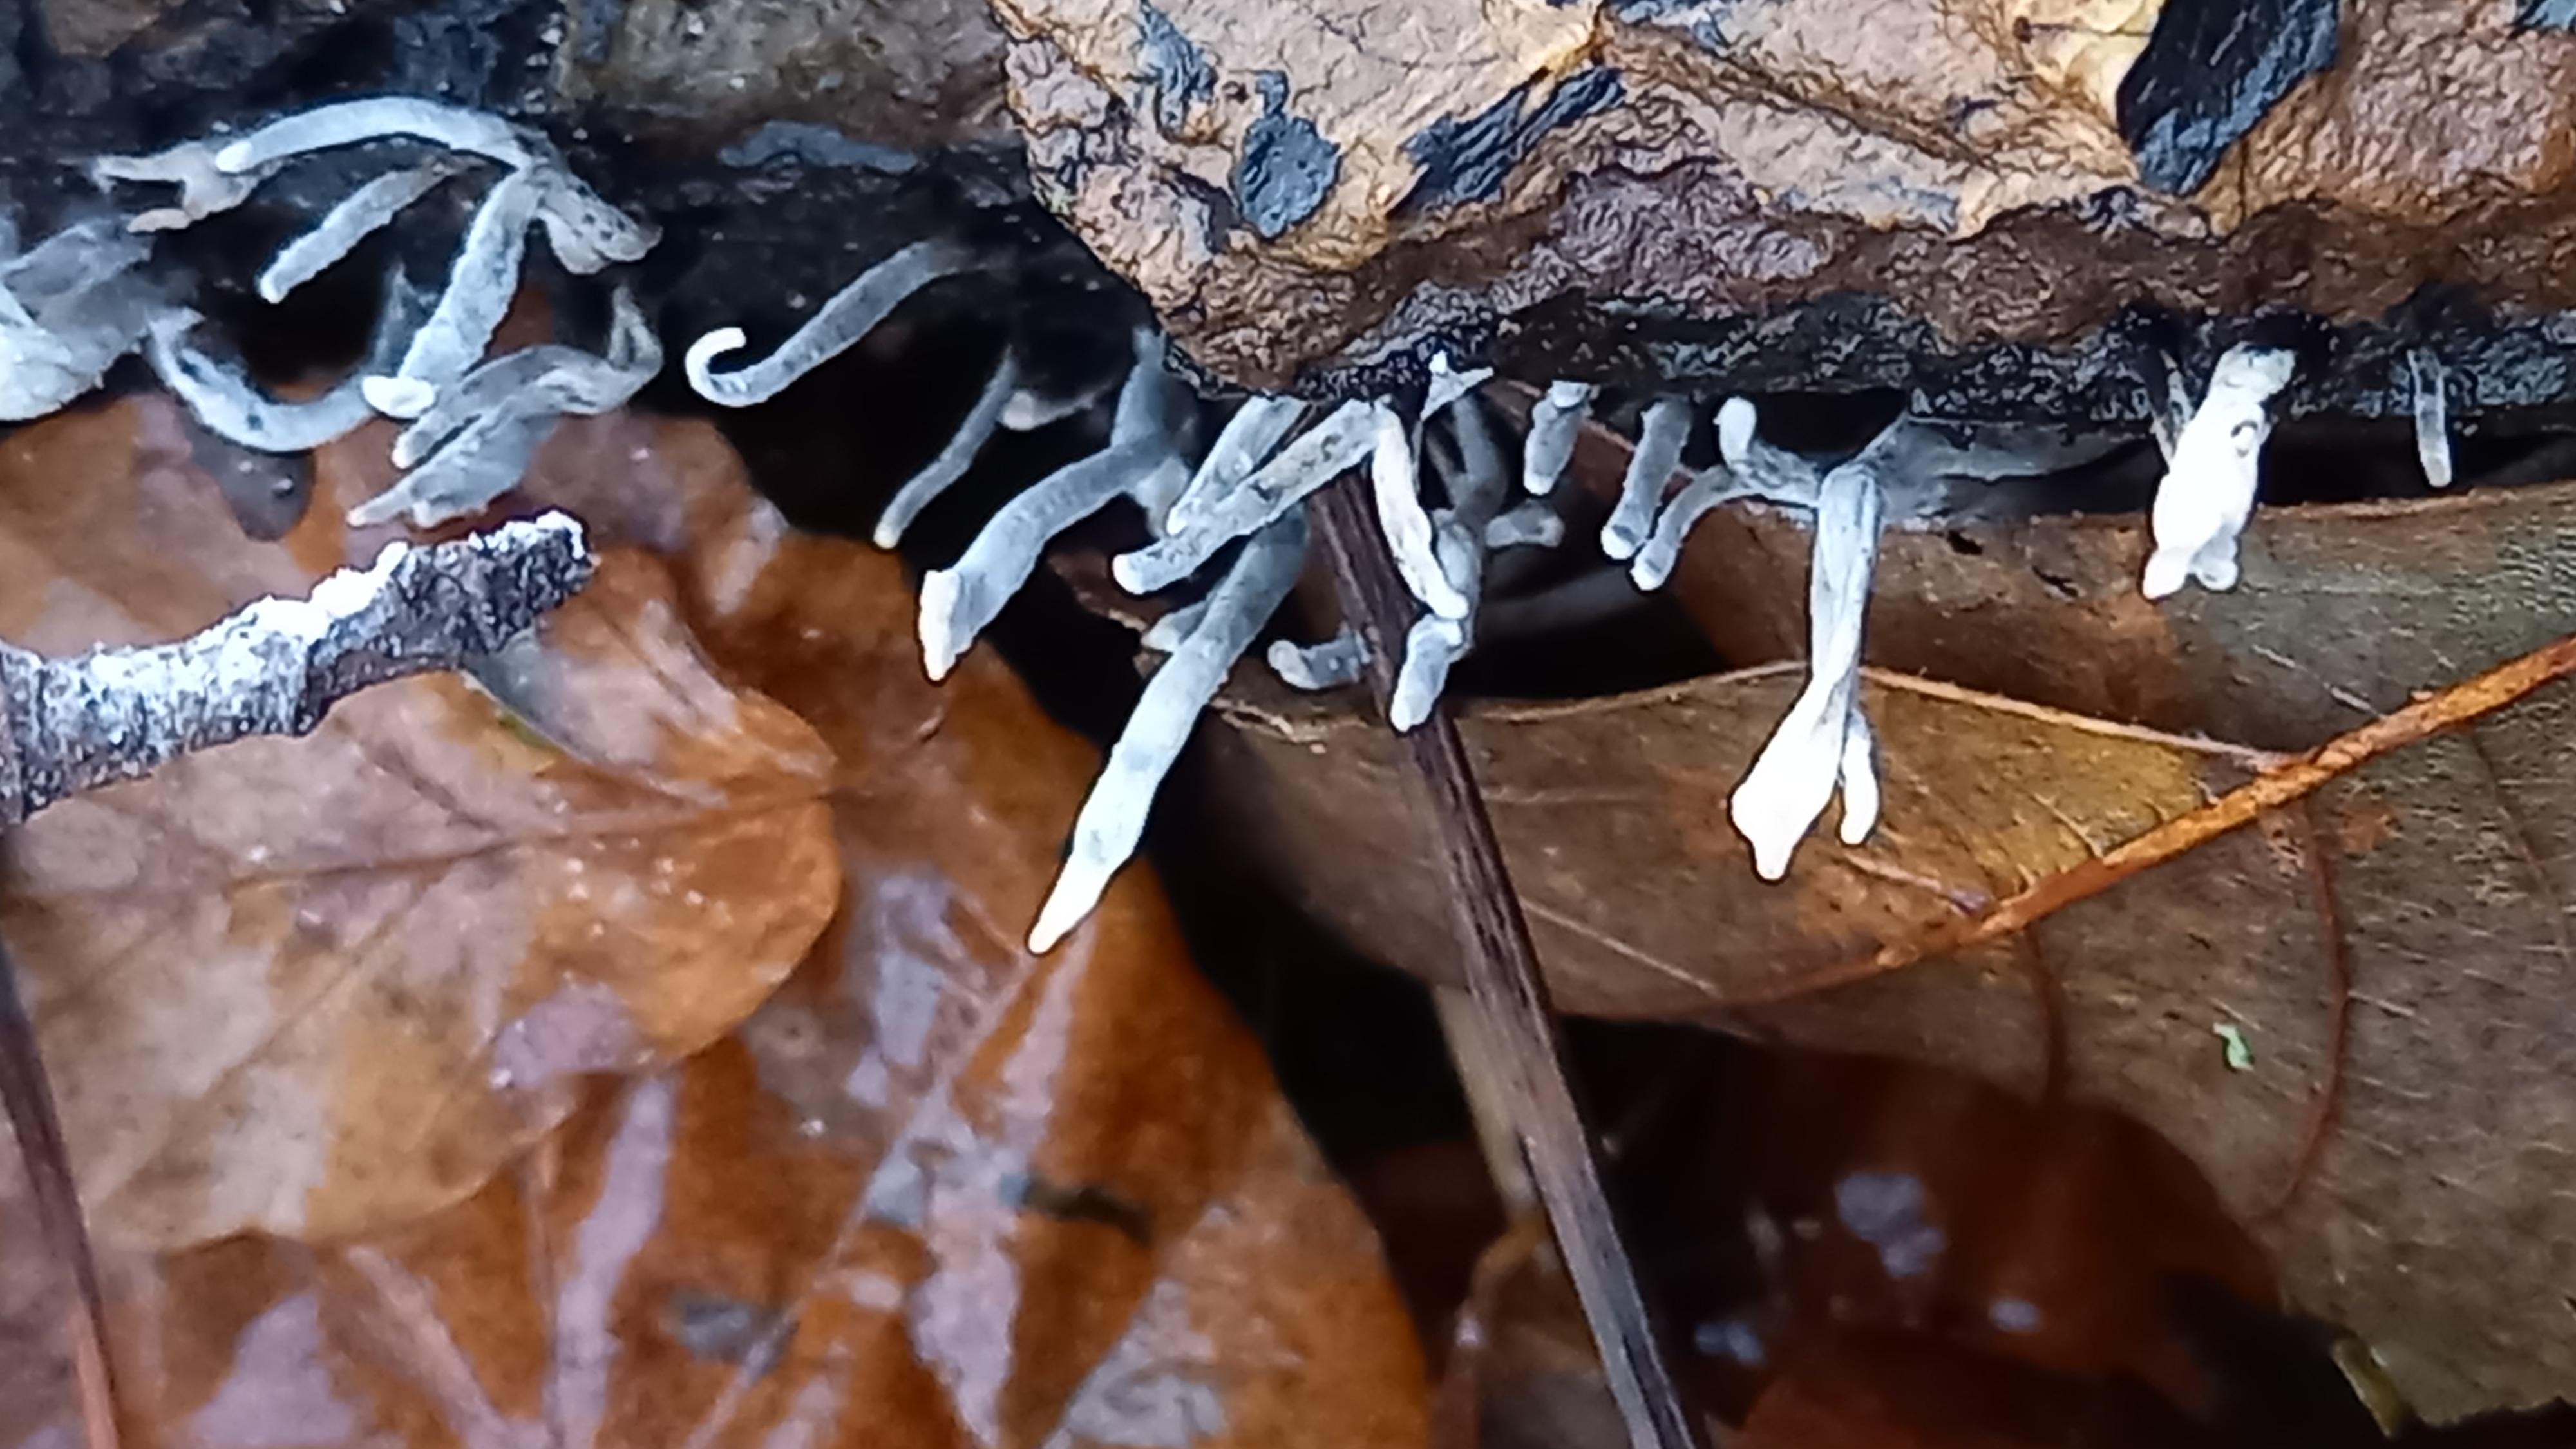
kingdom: Fungi
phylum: Ascomycota
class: Sordariomycetes
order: Xylariales
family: Xylariaceae
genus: Xylaria
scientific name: Xylaria hypoxylon
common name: grenet stødsvamp
